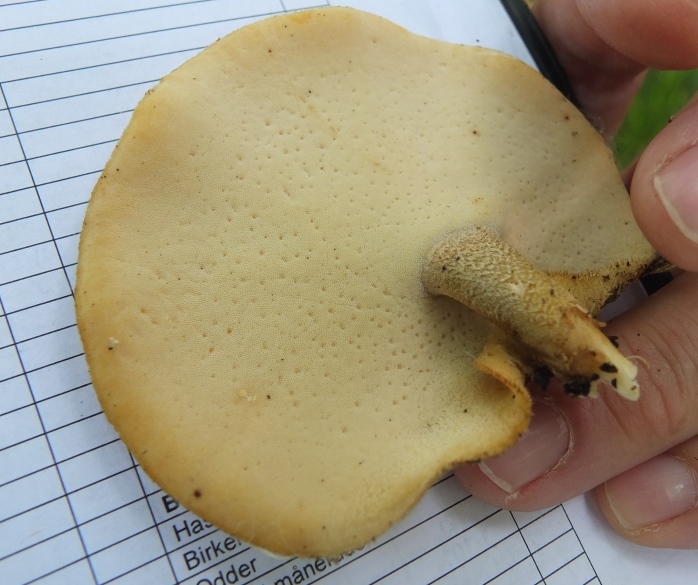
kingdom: Fungi
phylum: Basidiomycota
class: Agaricomycetes
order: Polyporales
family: Polyporaceae
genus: Lentinus
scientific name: Lentinus substrictus
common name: forårs-stilkporesvamp
